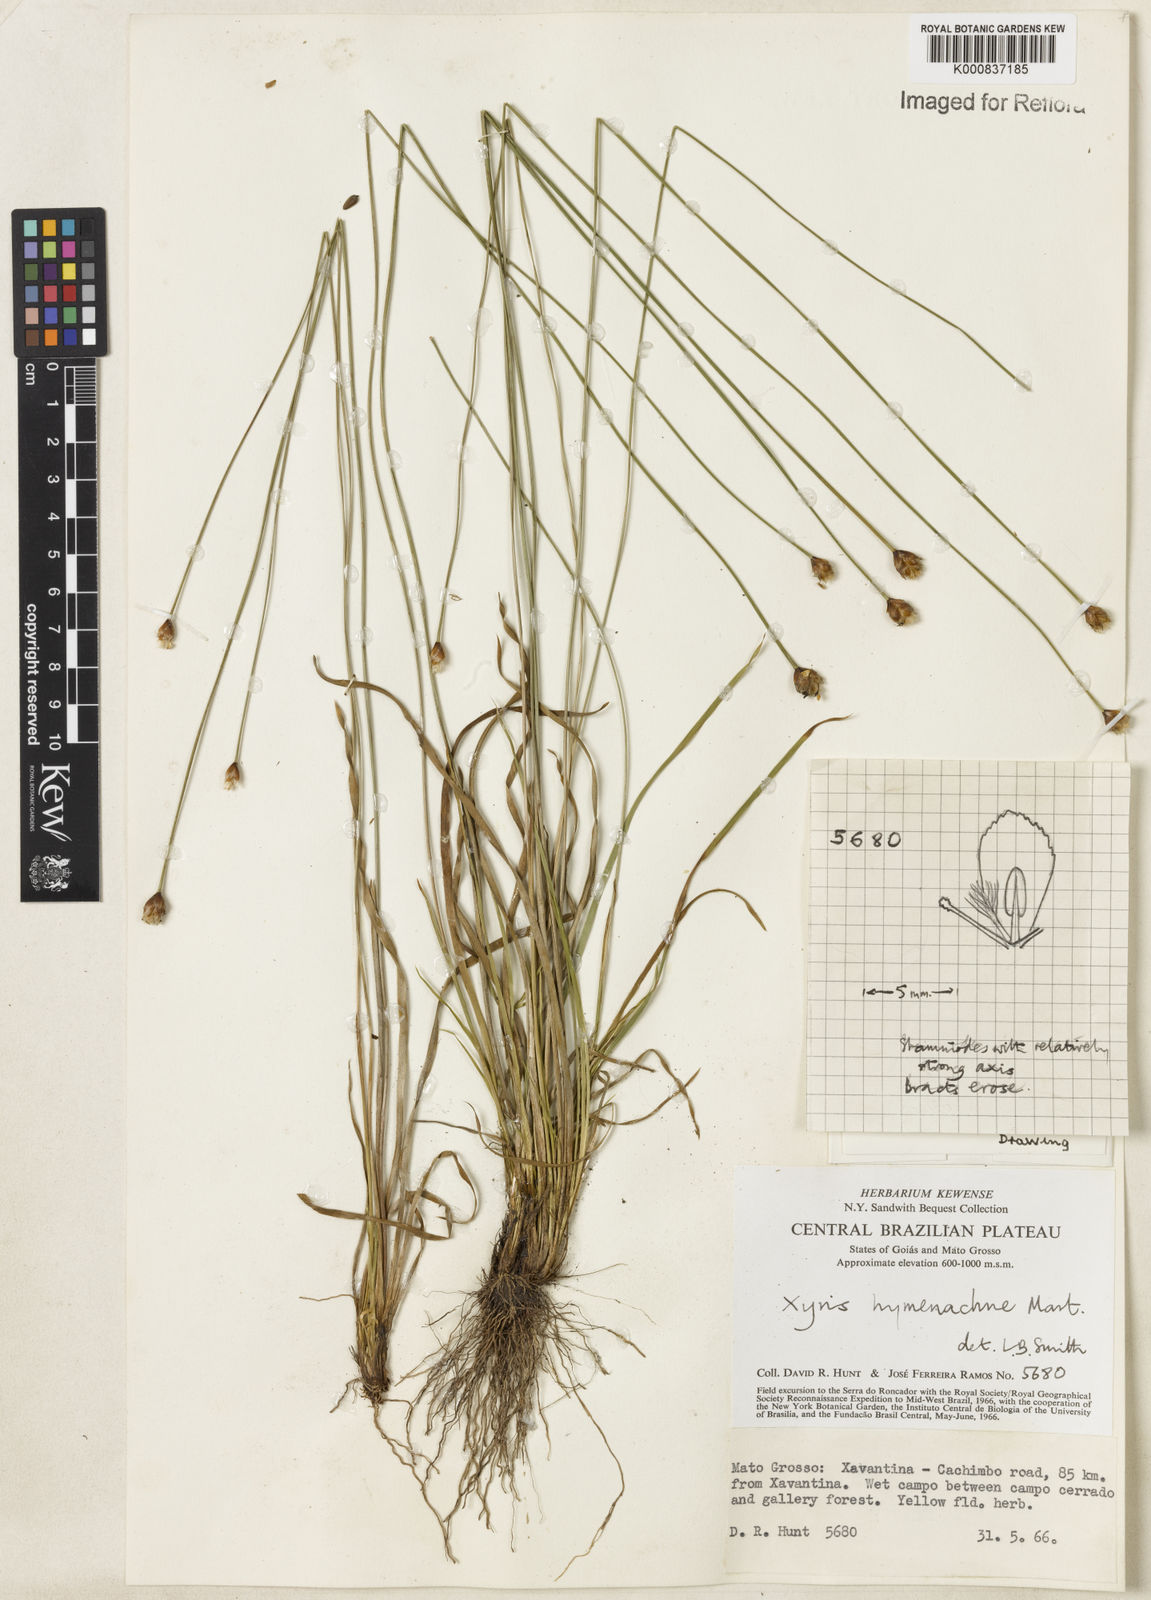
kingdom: Plantae
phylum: Tracheophyta
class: Liliopsida
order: Poales
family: Xyridaceae
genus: Xyris
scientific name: Xyris hymenachne
